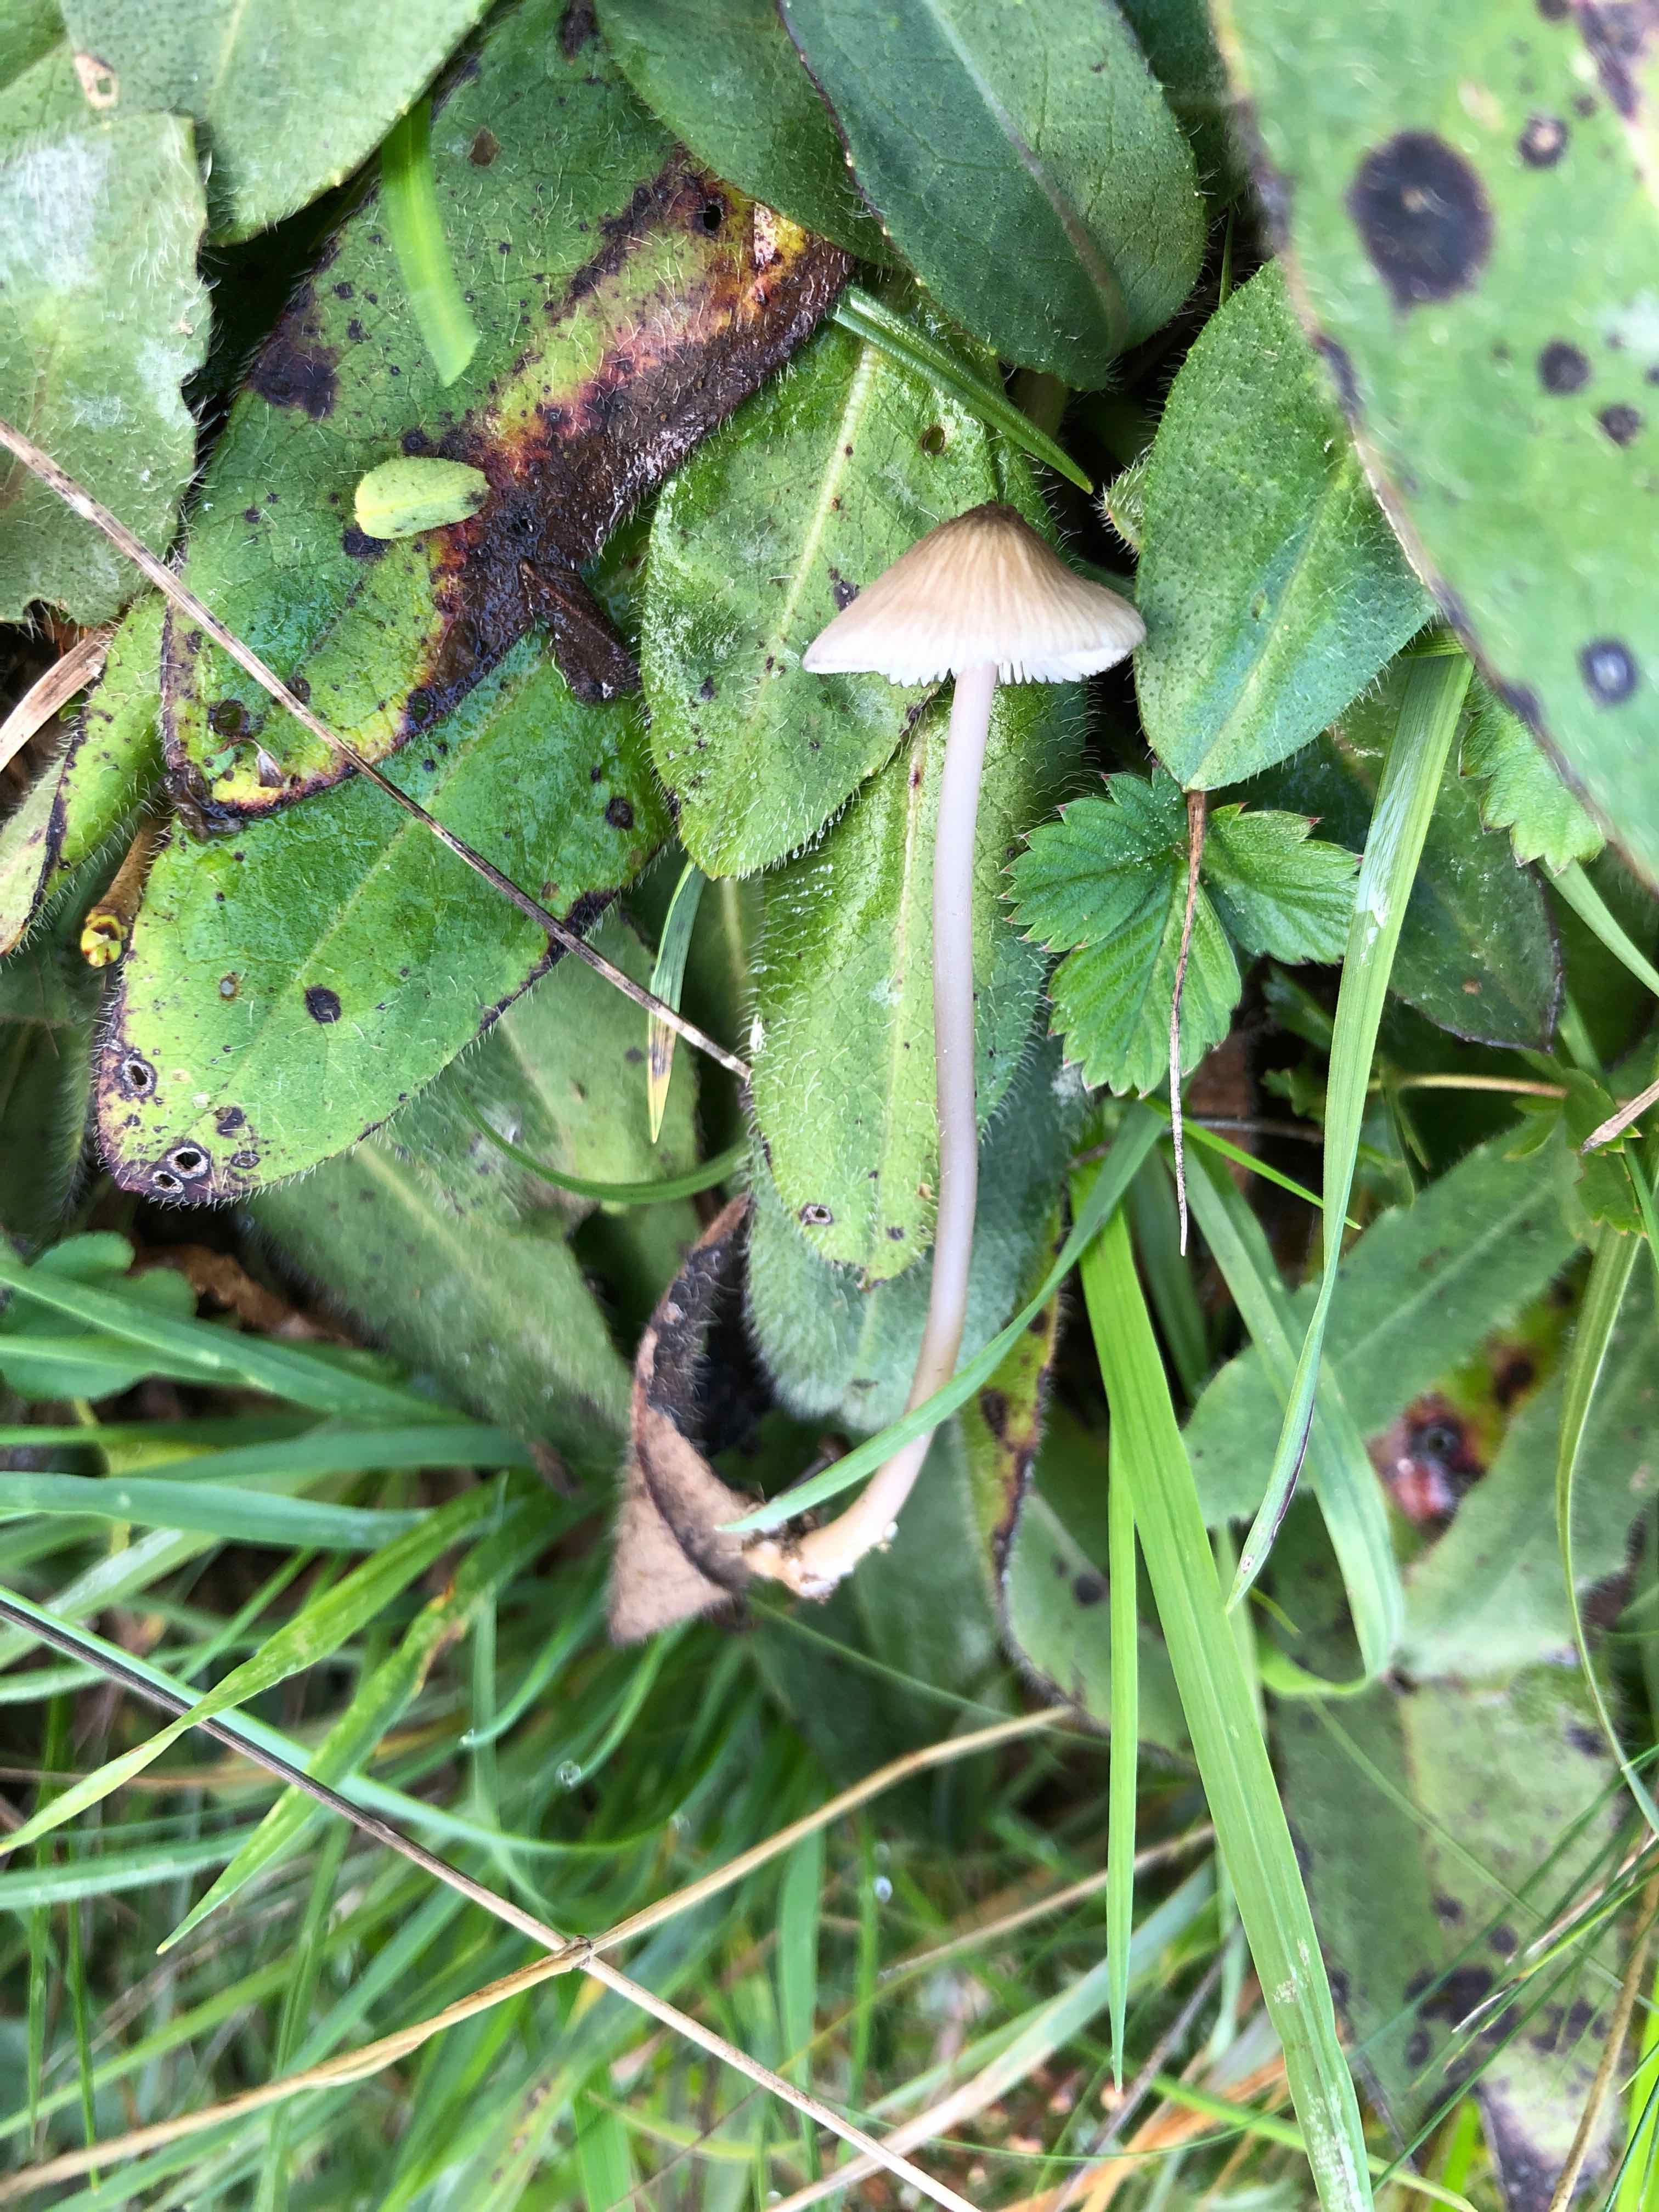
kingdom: Fungi
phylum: Basidiomycota
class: Agaricomycetes
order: Agaricales
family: Entolomataceae
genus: Entoloma
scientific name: Entoloma exile
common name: rødplettet rødblad
